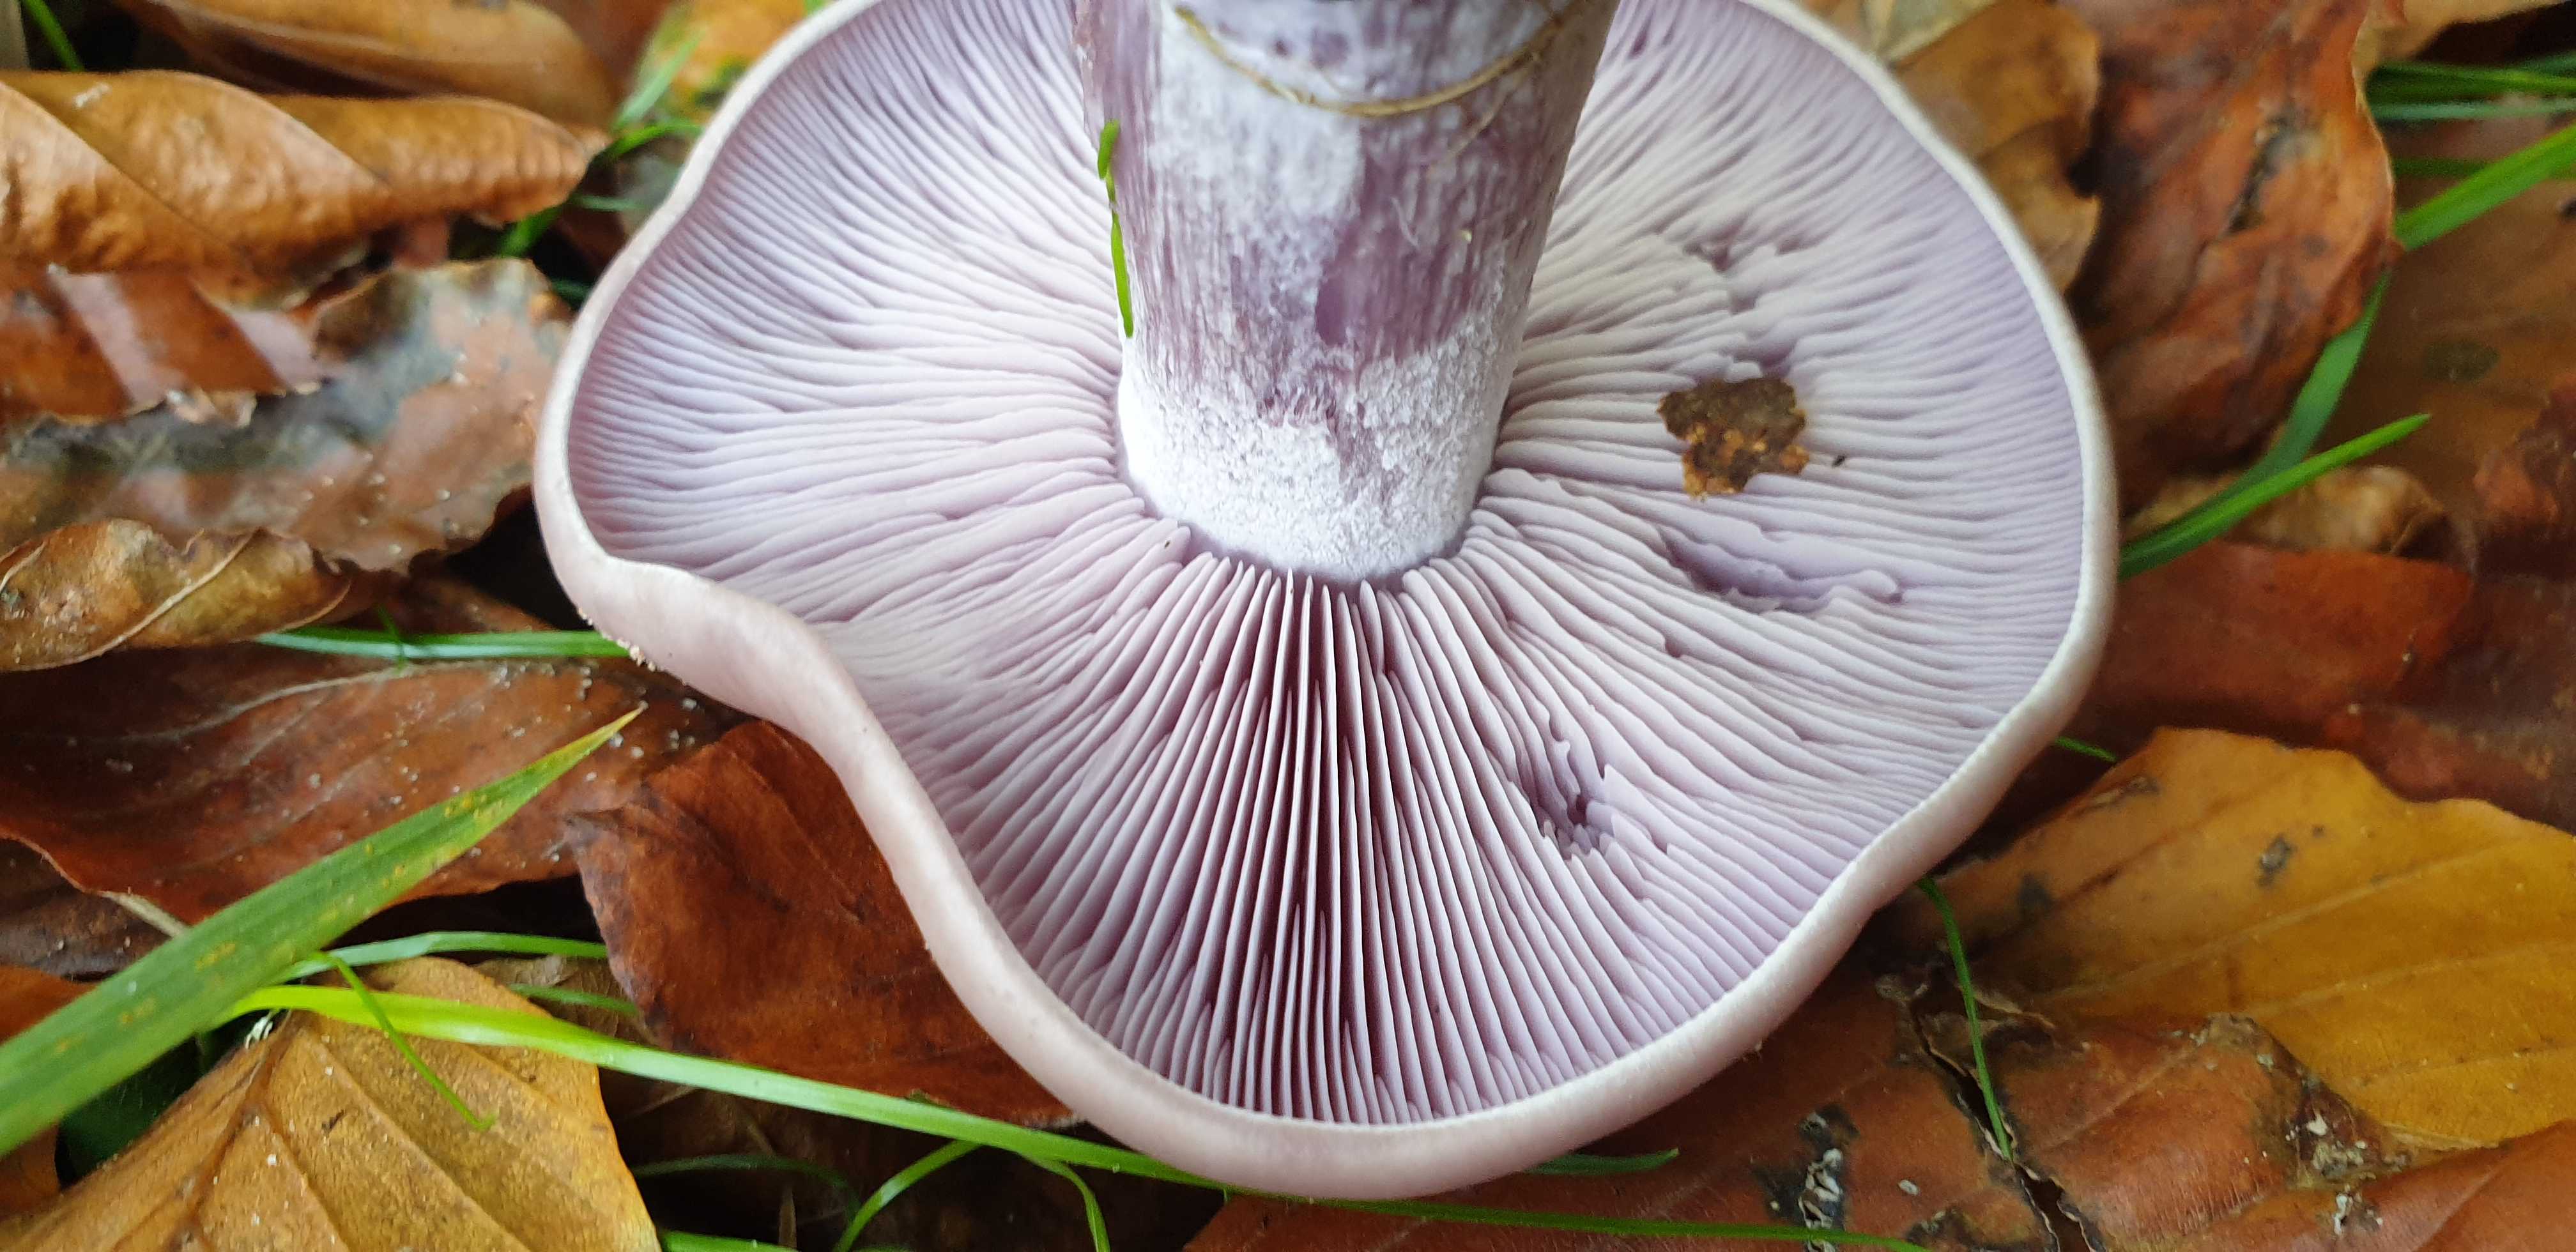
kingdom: Fungi
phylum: Basidiomycota
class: Agaricomycetes
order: Agaricales
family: Tricholomataceae
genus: Lepista
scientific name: Lepista nuda
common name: violet hekseringshat
